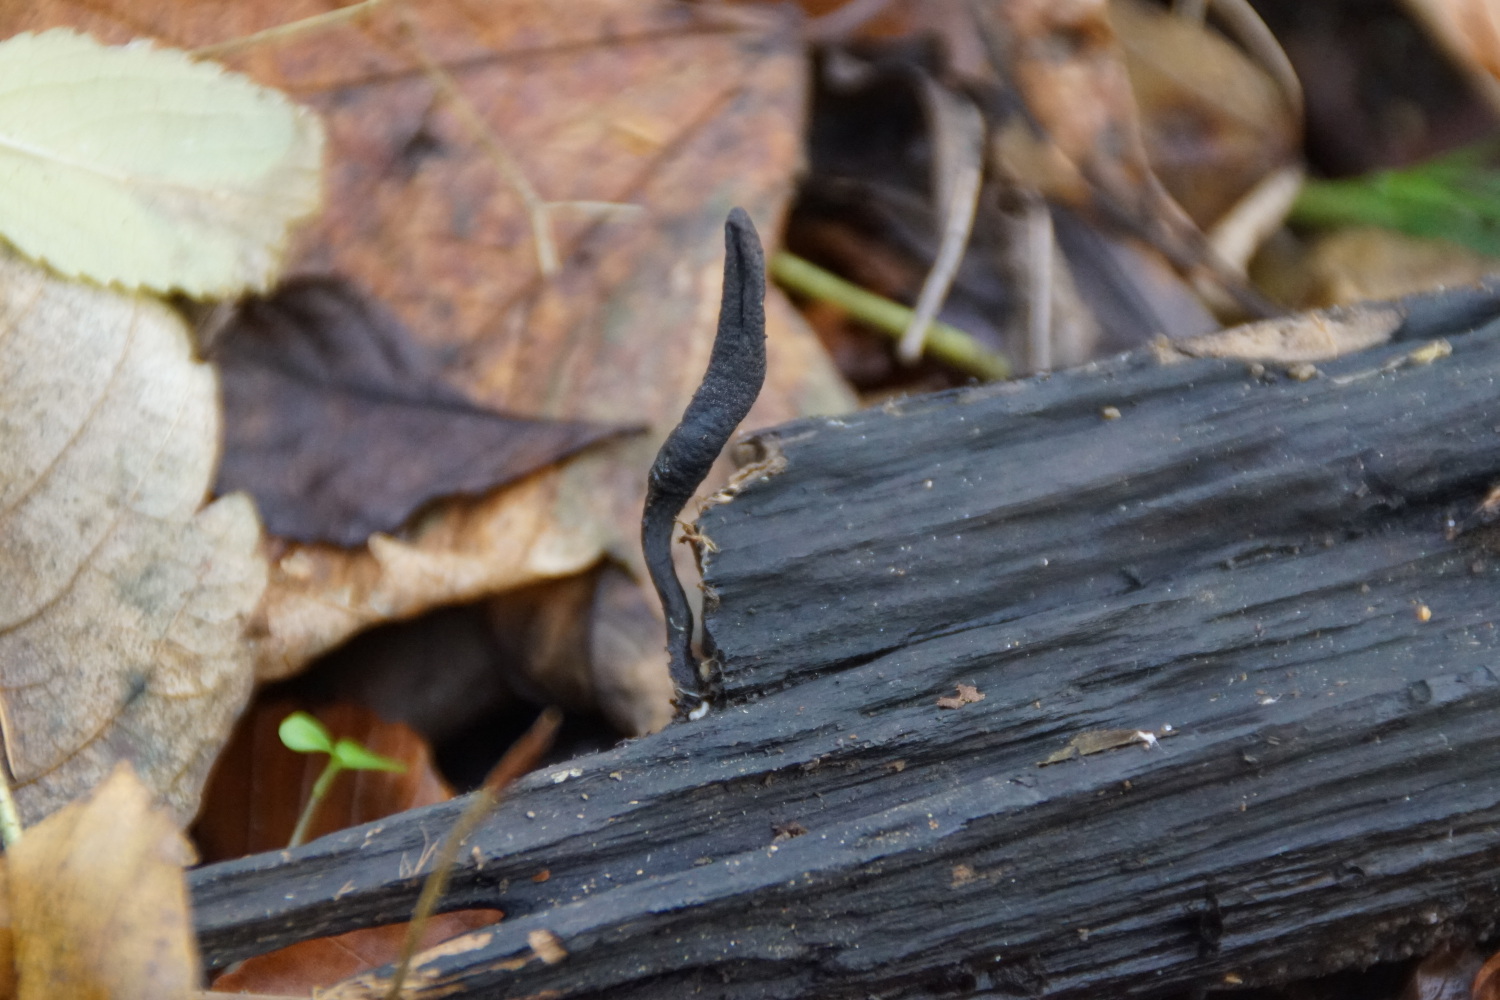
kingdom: Fungi
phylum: Ascomycota
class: Sordariomycetes
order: Xylariales
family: Xylariaceae
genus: Xylaria
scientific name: Xylaria longipes
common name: slank stødsvamp
